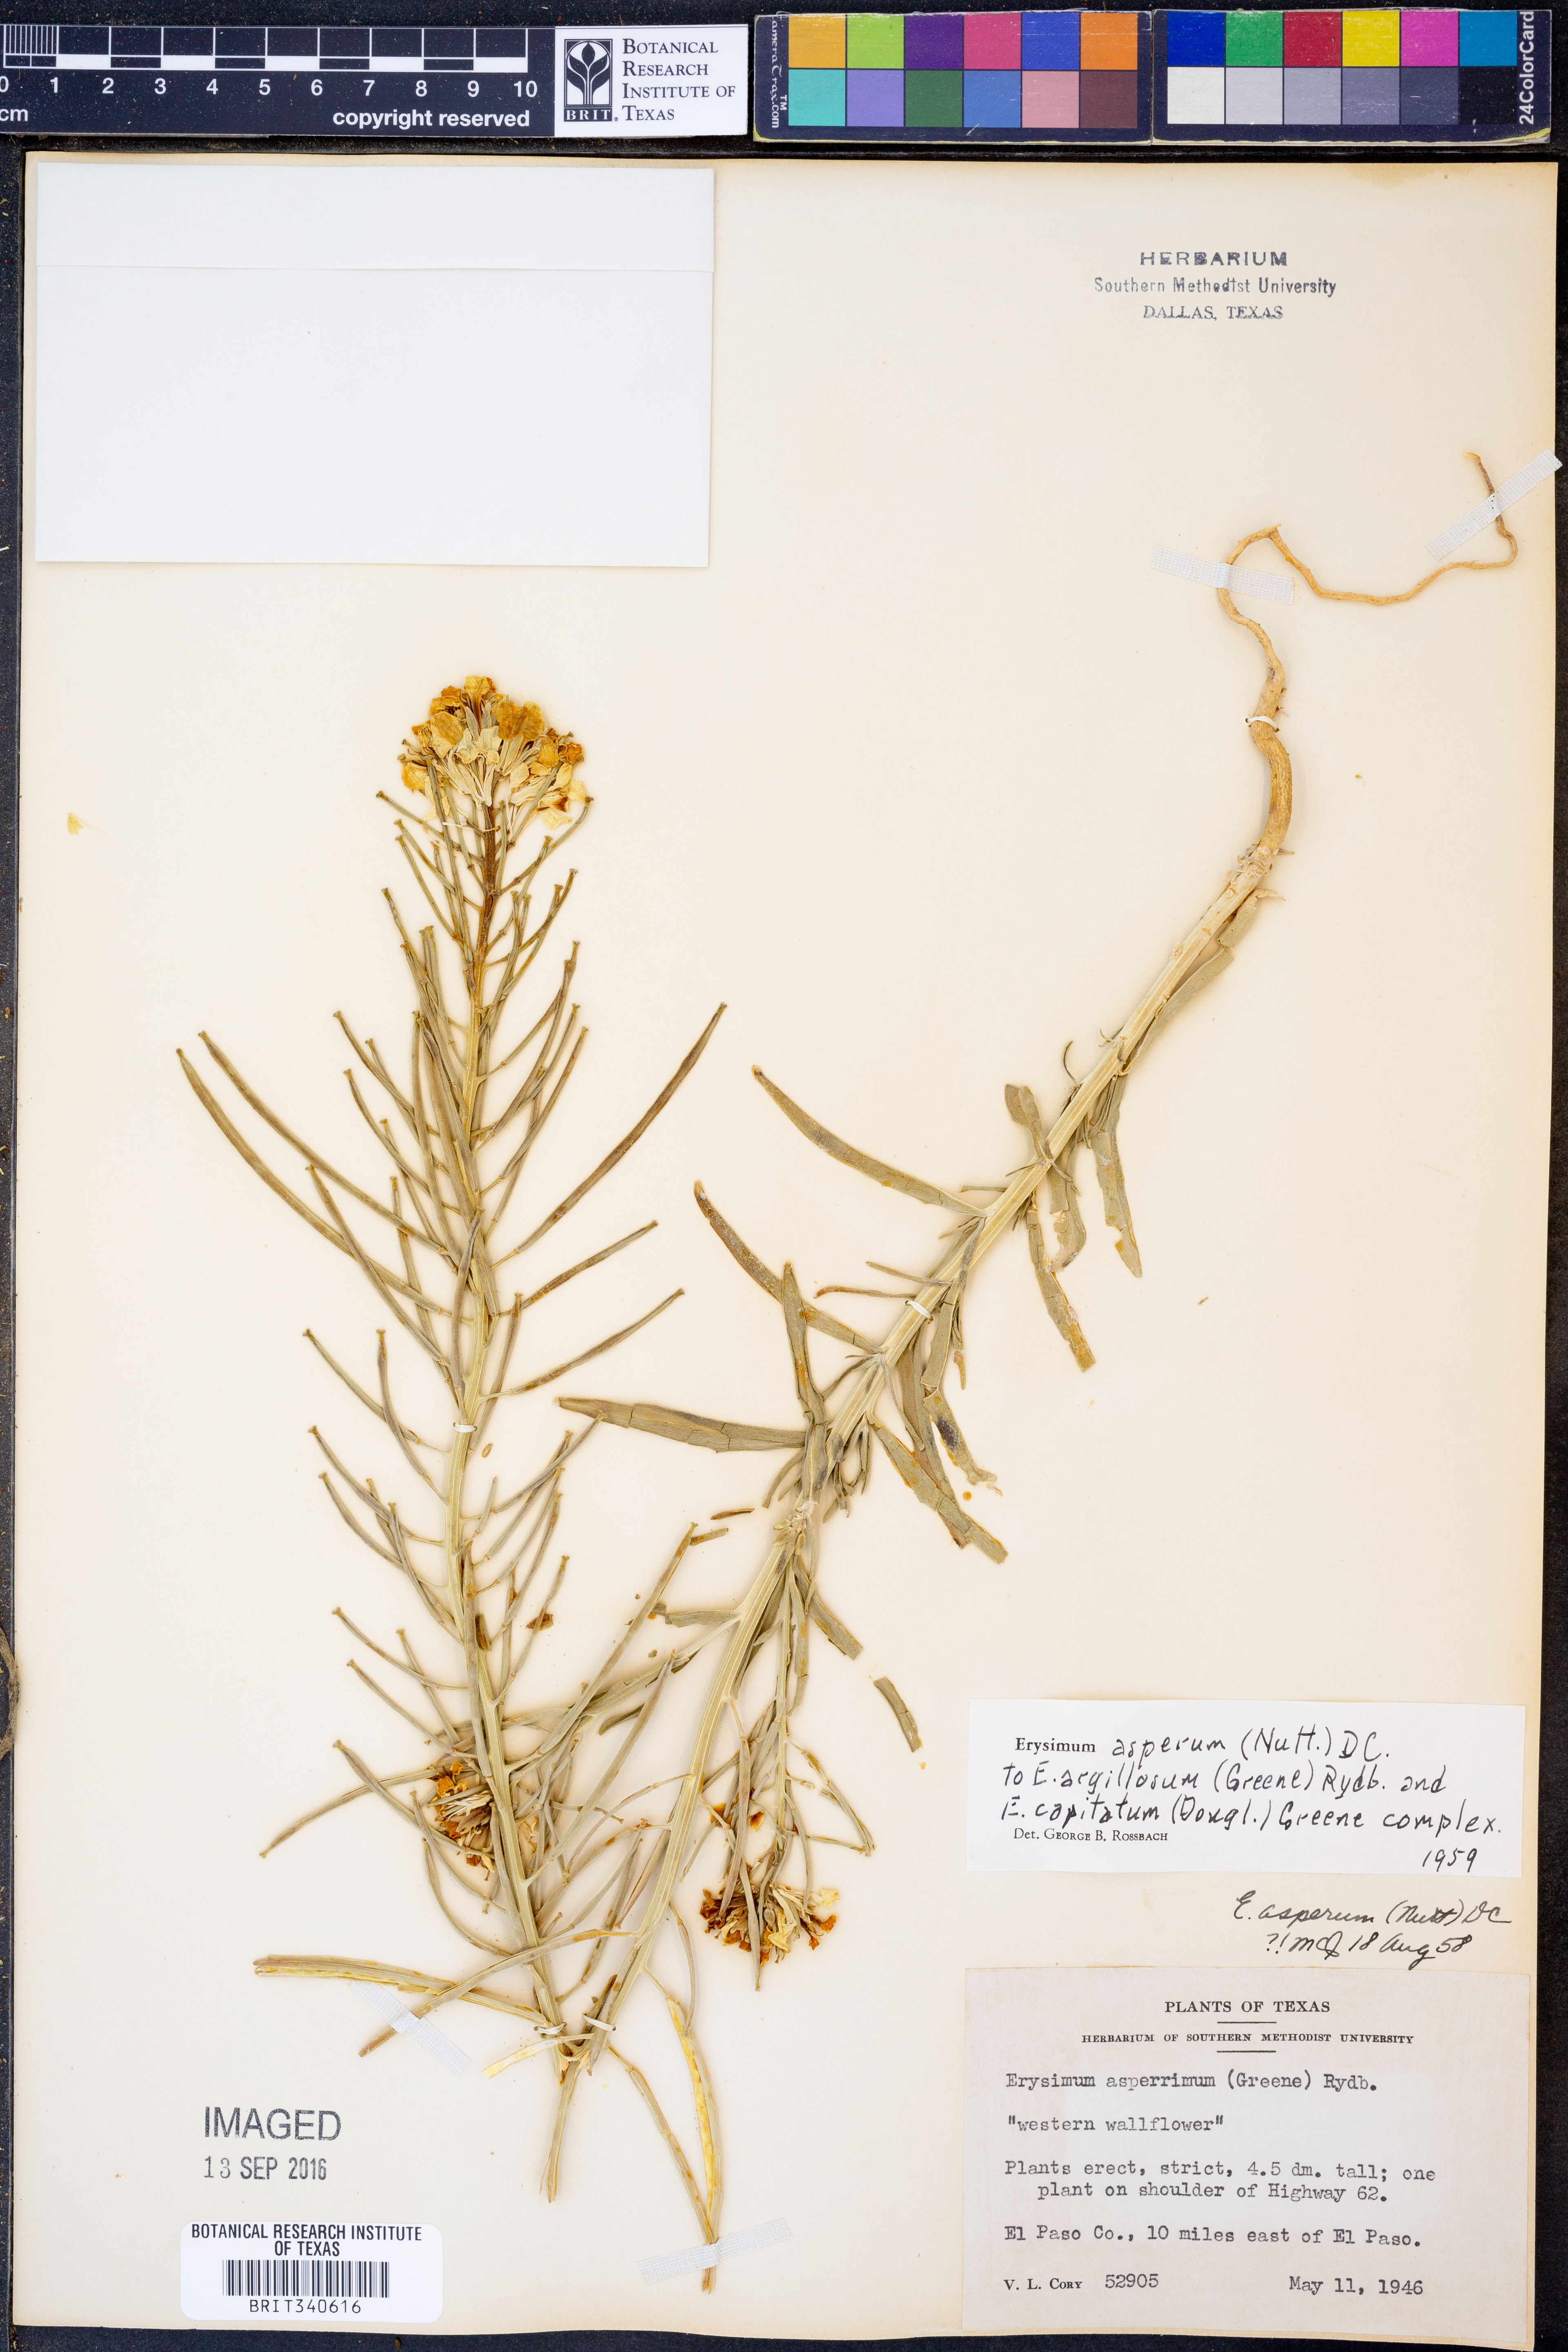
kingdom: Plantae
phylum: Tracheophyta
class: Magnoliopsida
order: Brassicales
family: Brassicaceae
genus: Erysimum
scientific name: Erysimum asperum
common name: Western wallflower
